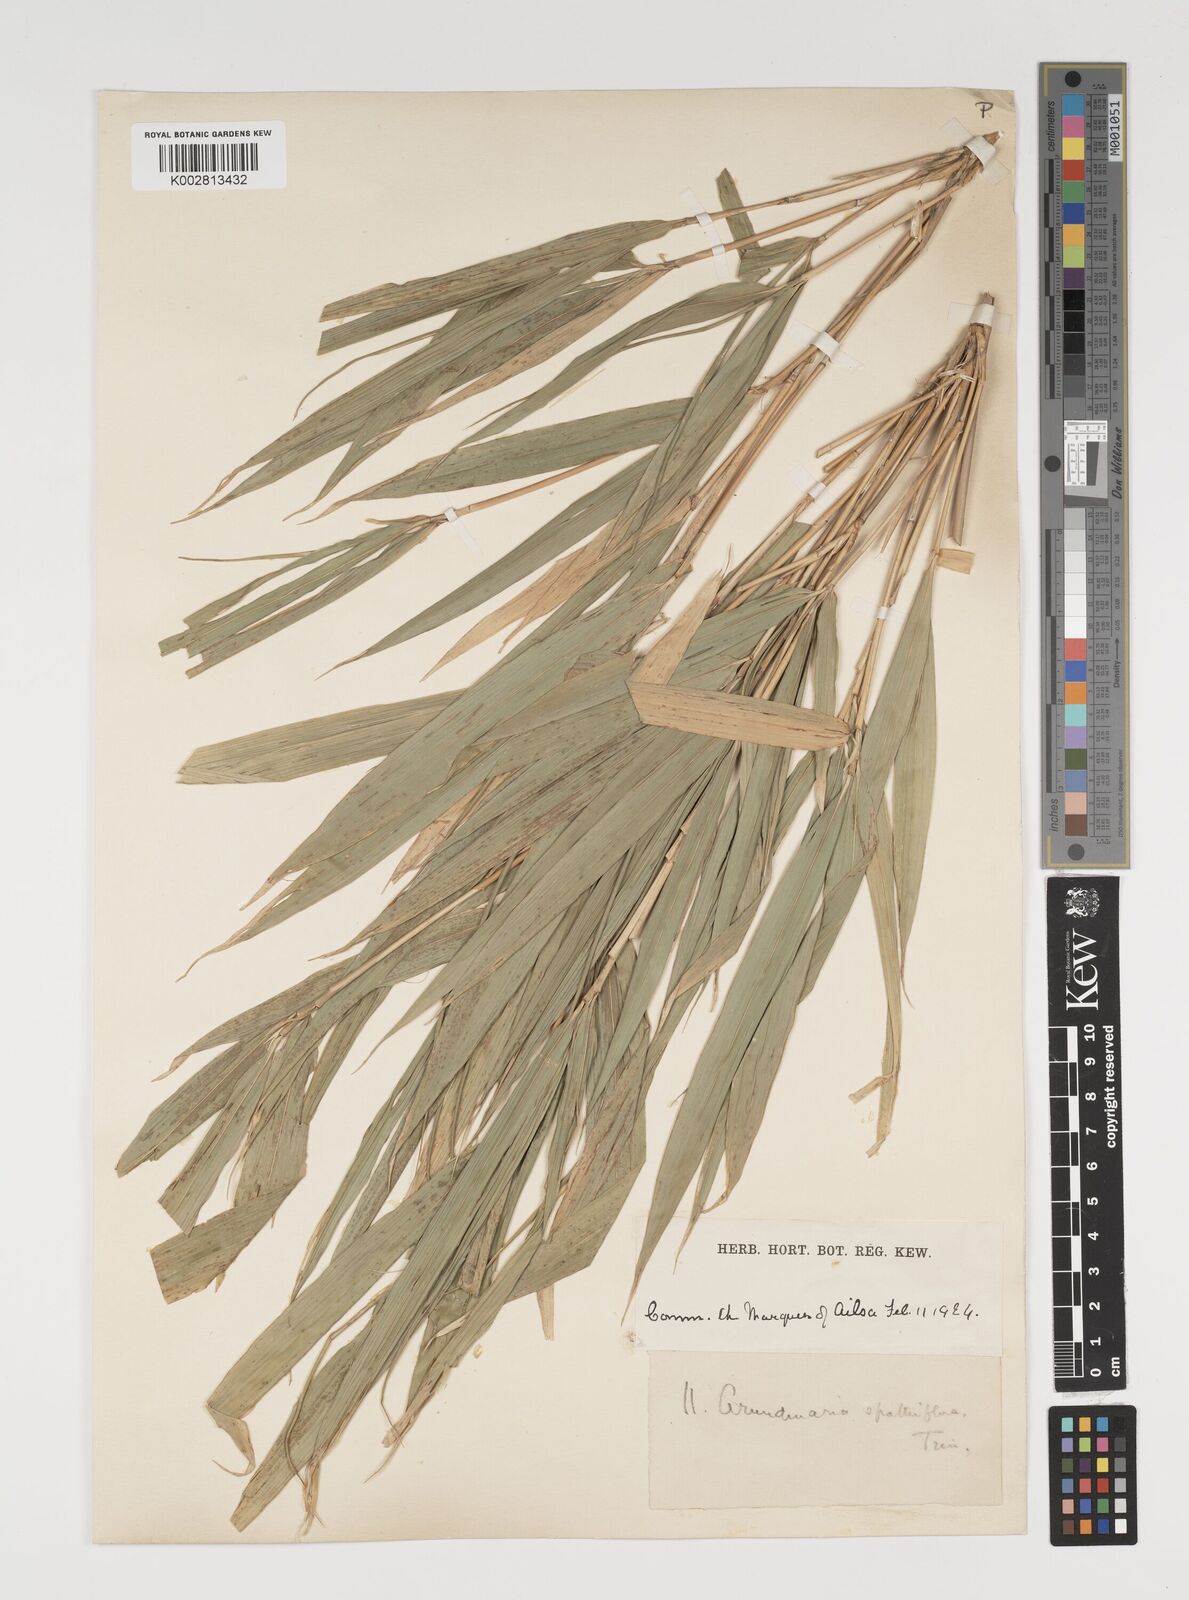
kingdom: Plantae
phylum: Tracheophyta
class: Liliopsida
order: Poales
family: Poaceae
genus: Thamnocalamus
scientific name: Thamnocalamus spathiflorus
